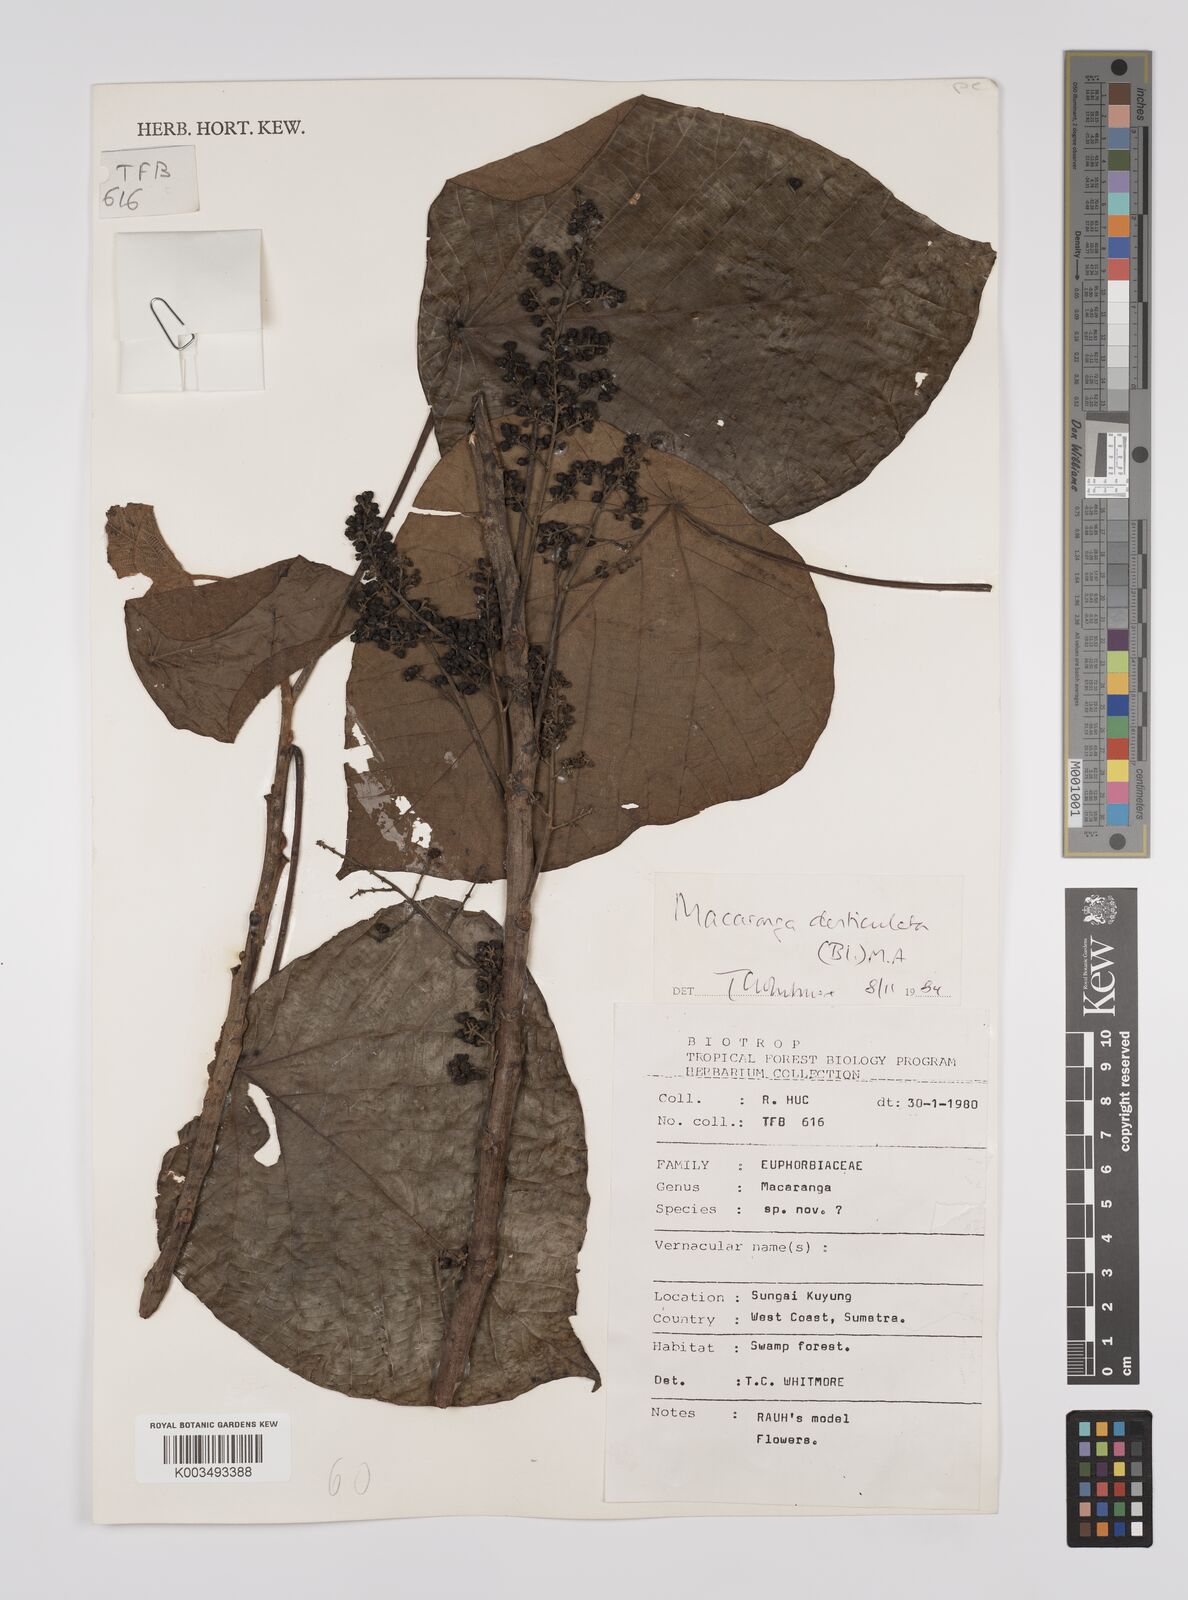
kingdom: Plantae
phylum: Tracheophyta
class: Magnoliopsida
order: Malpighiales
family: Euphorbiaceae
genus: Macaranga
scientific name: Macaranga denticulata
